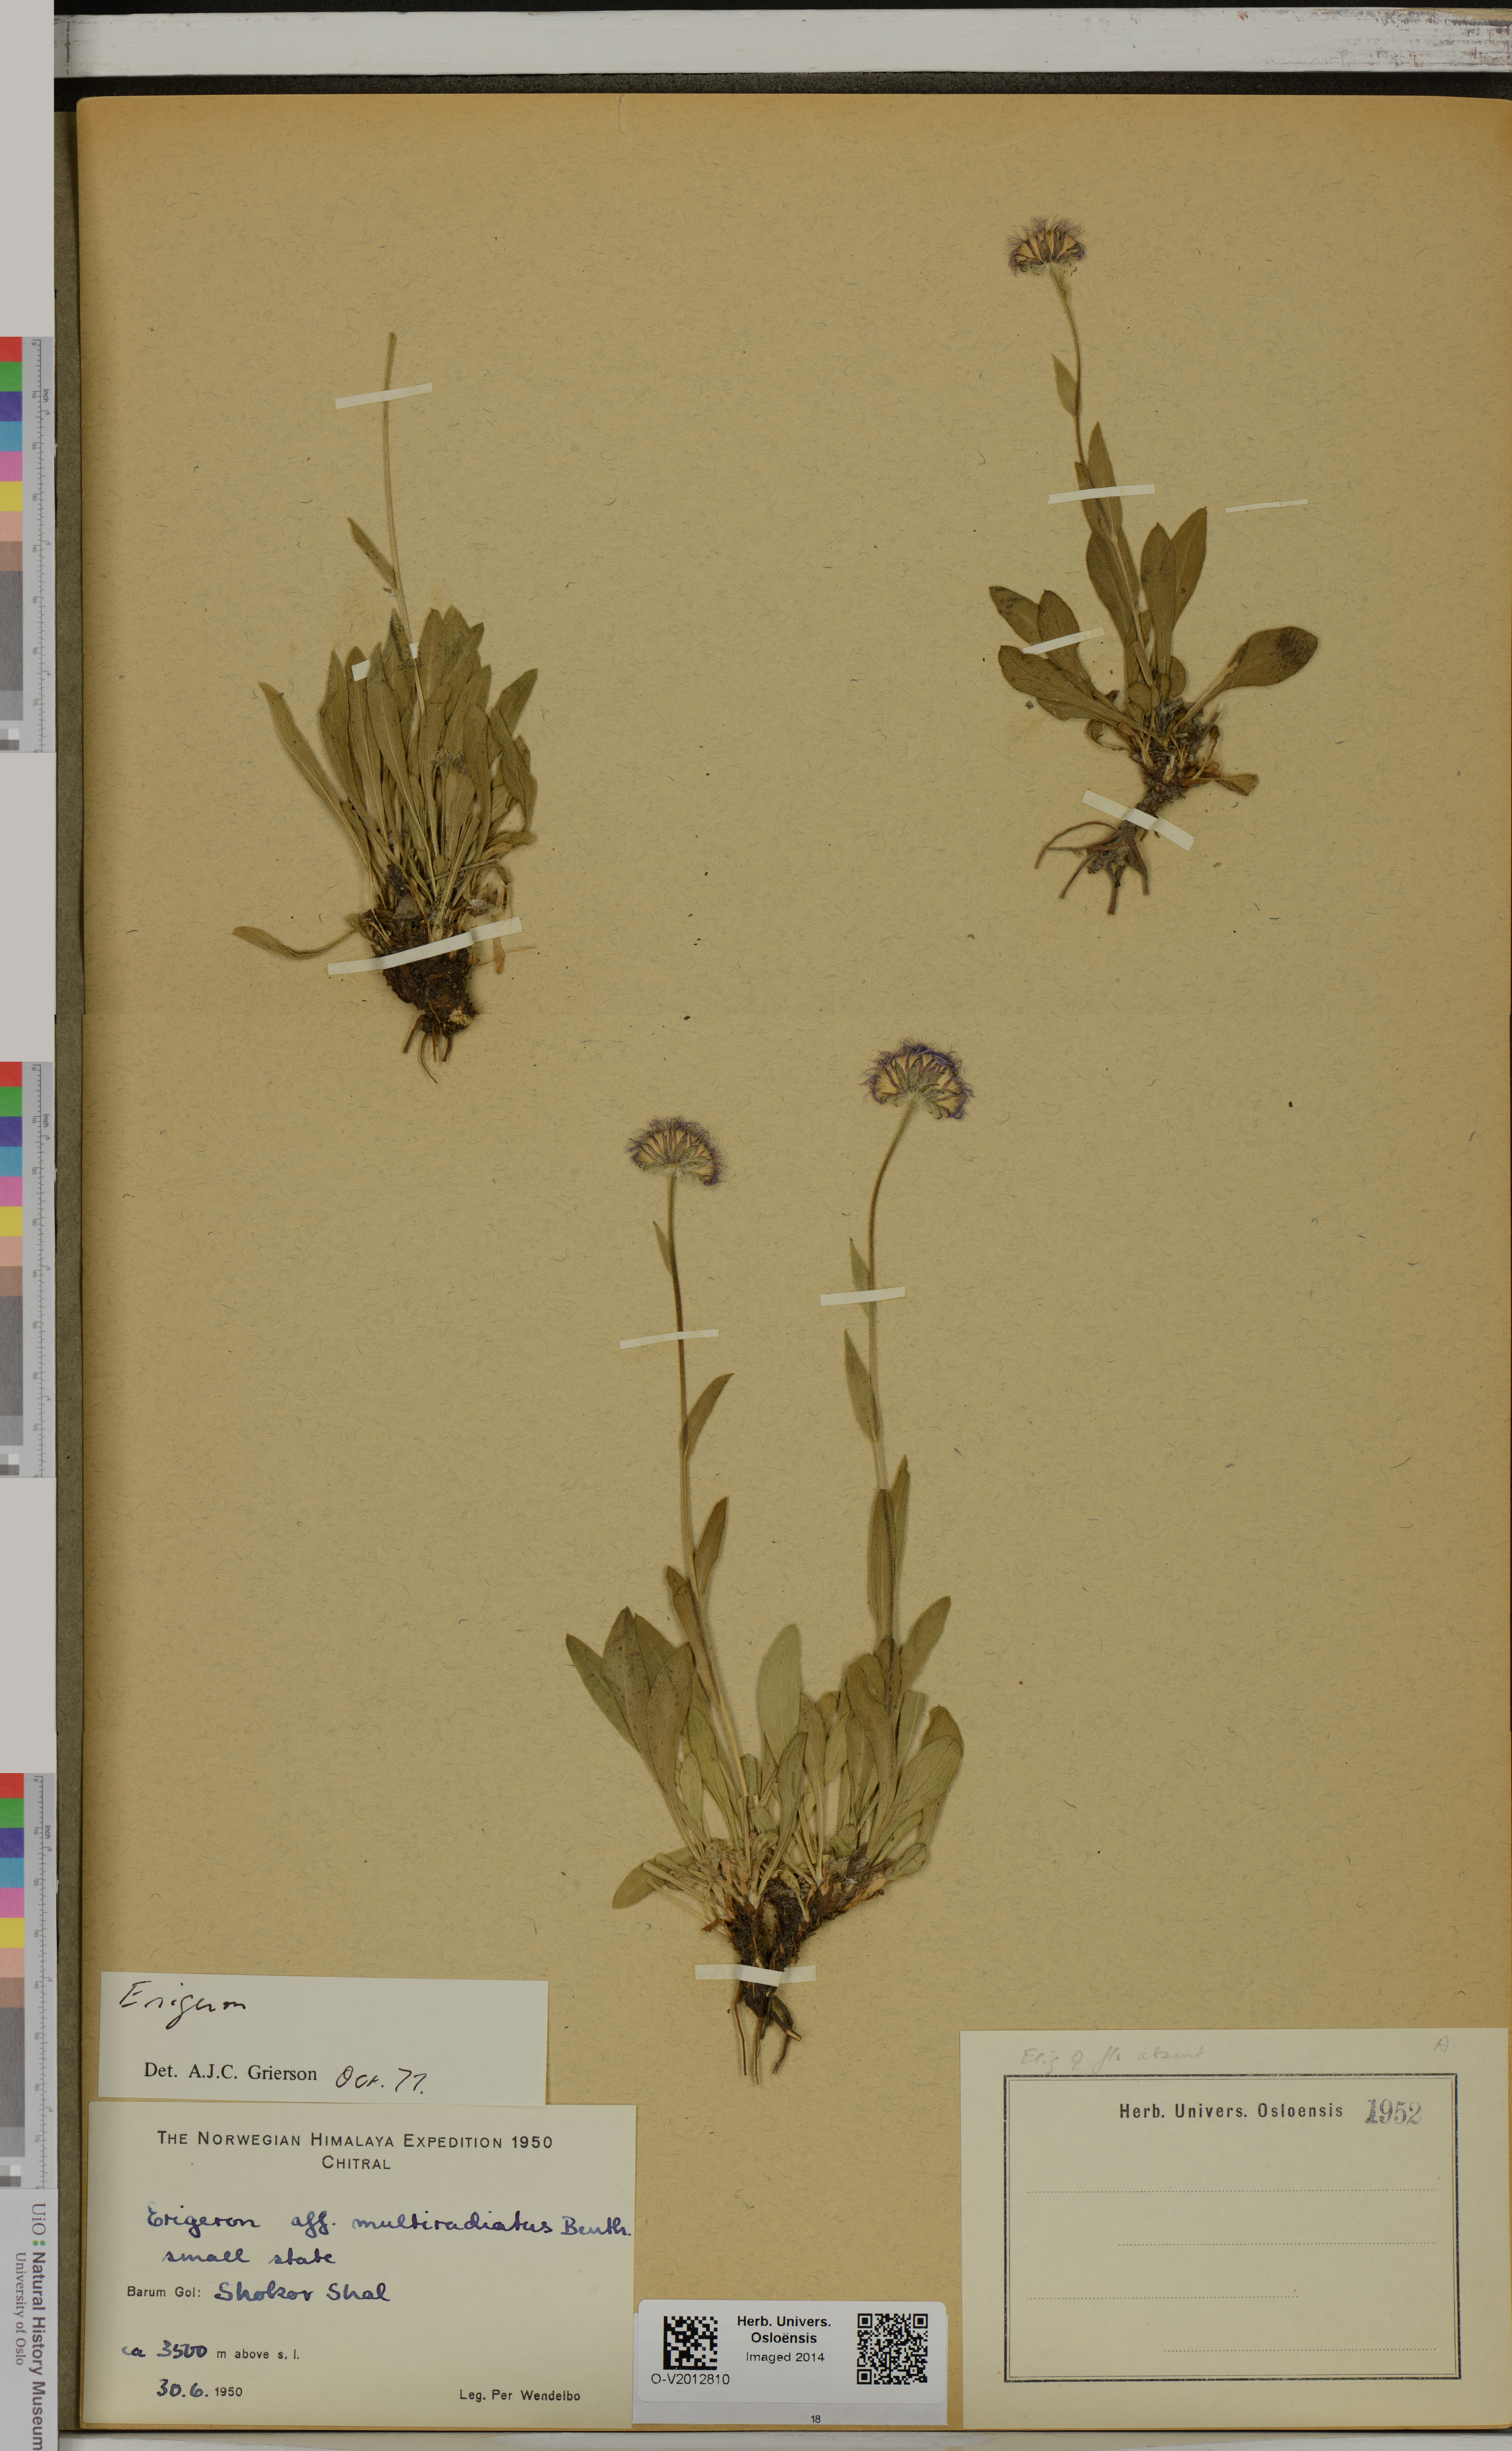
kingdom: Plantae
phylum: Tracheophyta
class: Magnoliopsida
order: Asterales
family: Asteraceae
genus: Erigeron
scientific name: Erigeron multiradiatus
